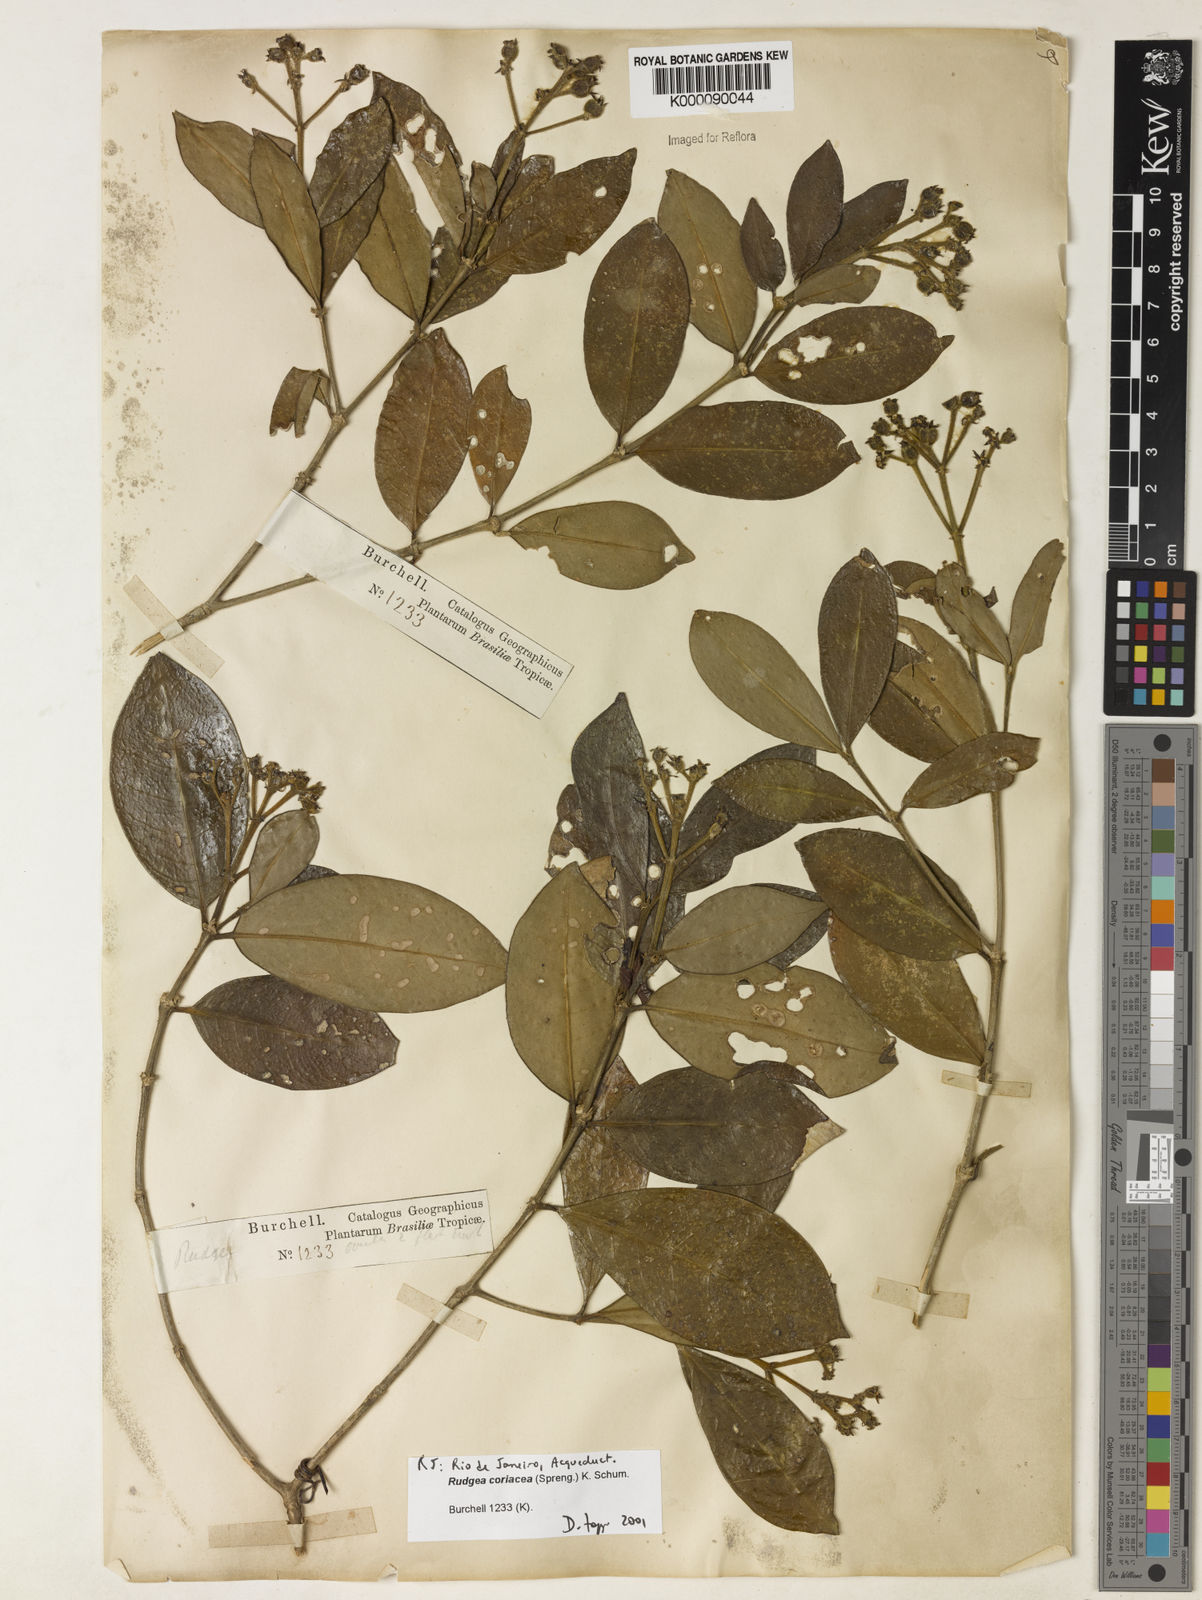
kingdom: Plantae
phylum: Tracheophyta
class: Magnoliopsida
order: Gentianales
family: Rubiaceae
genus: Rudgea
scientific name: Rudgea coriacea
